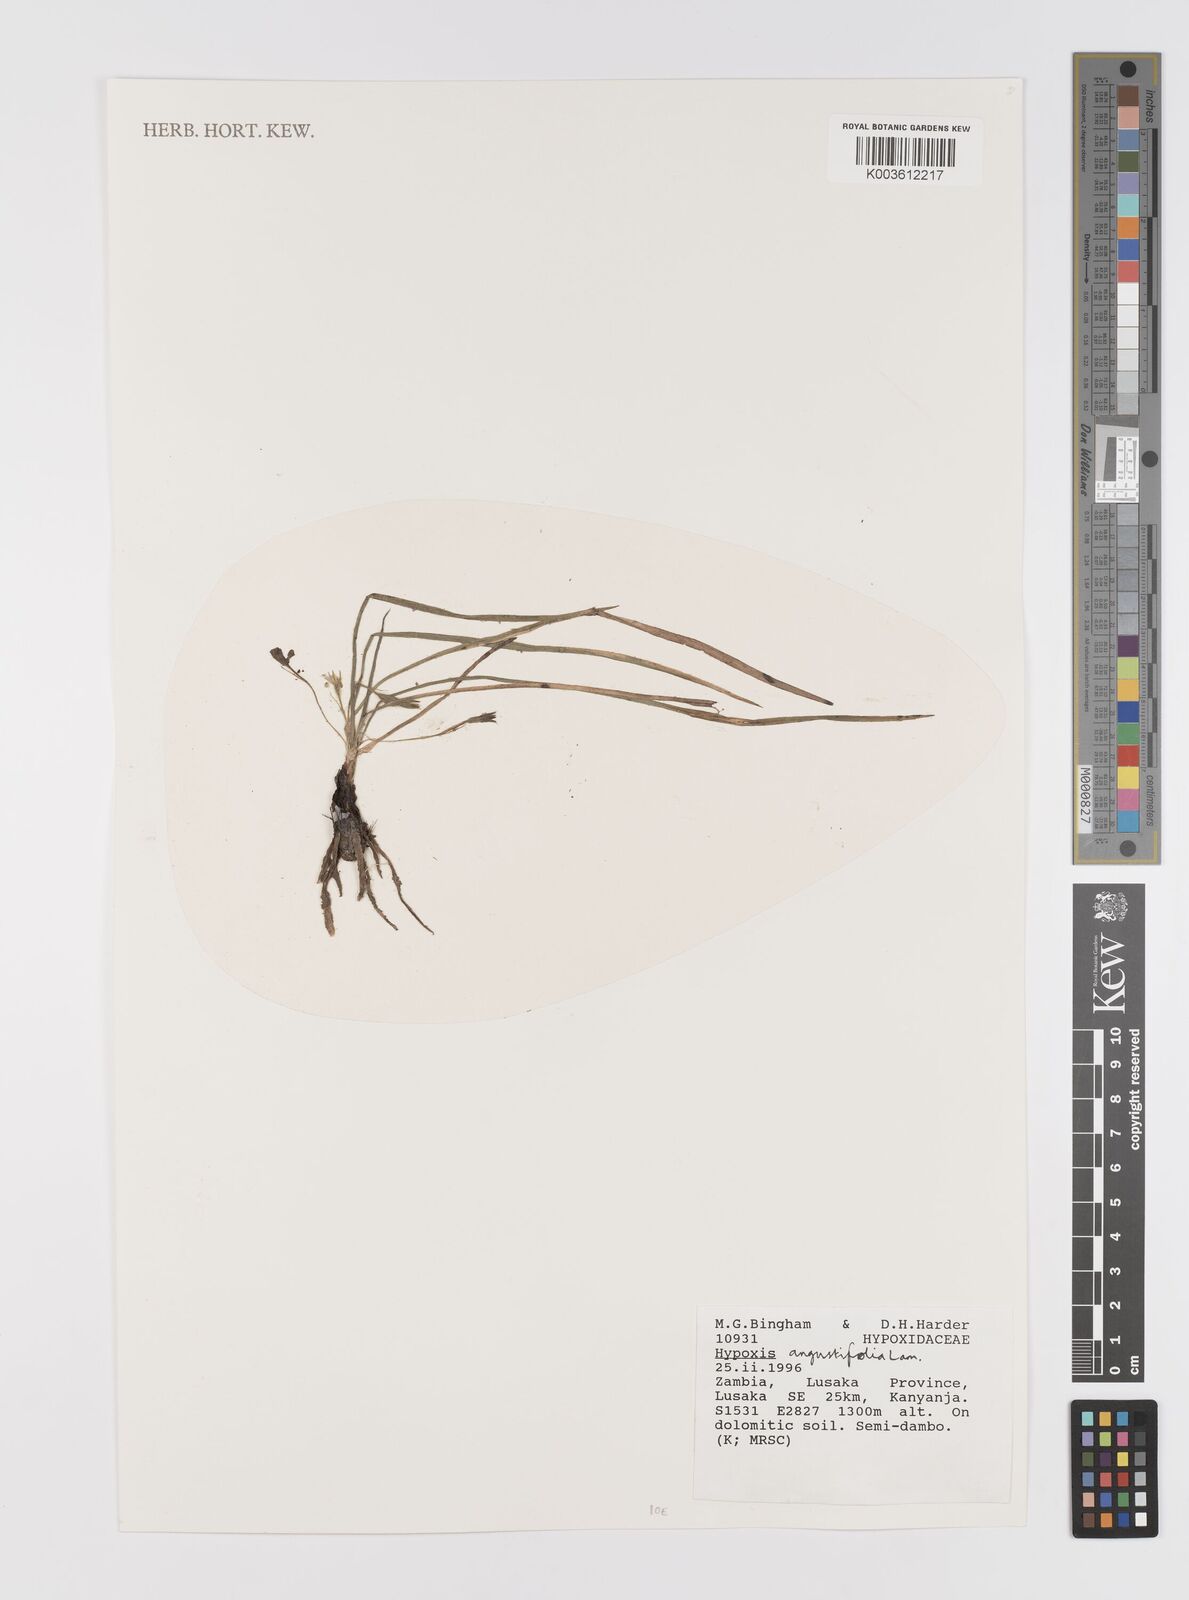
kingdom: Plantae
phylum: Tracheophyta
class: Liliopsida
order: Asparagales
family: Hypoxidaceae
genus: Hypoxis
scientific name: Hypoxis angustifolia
